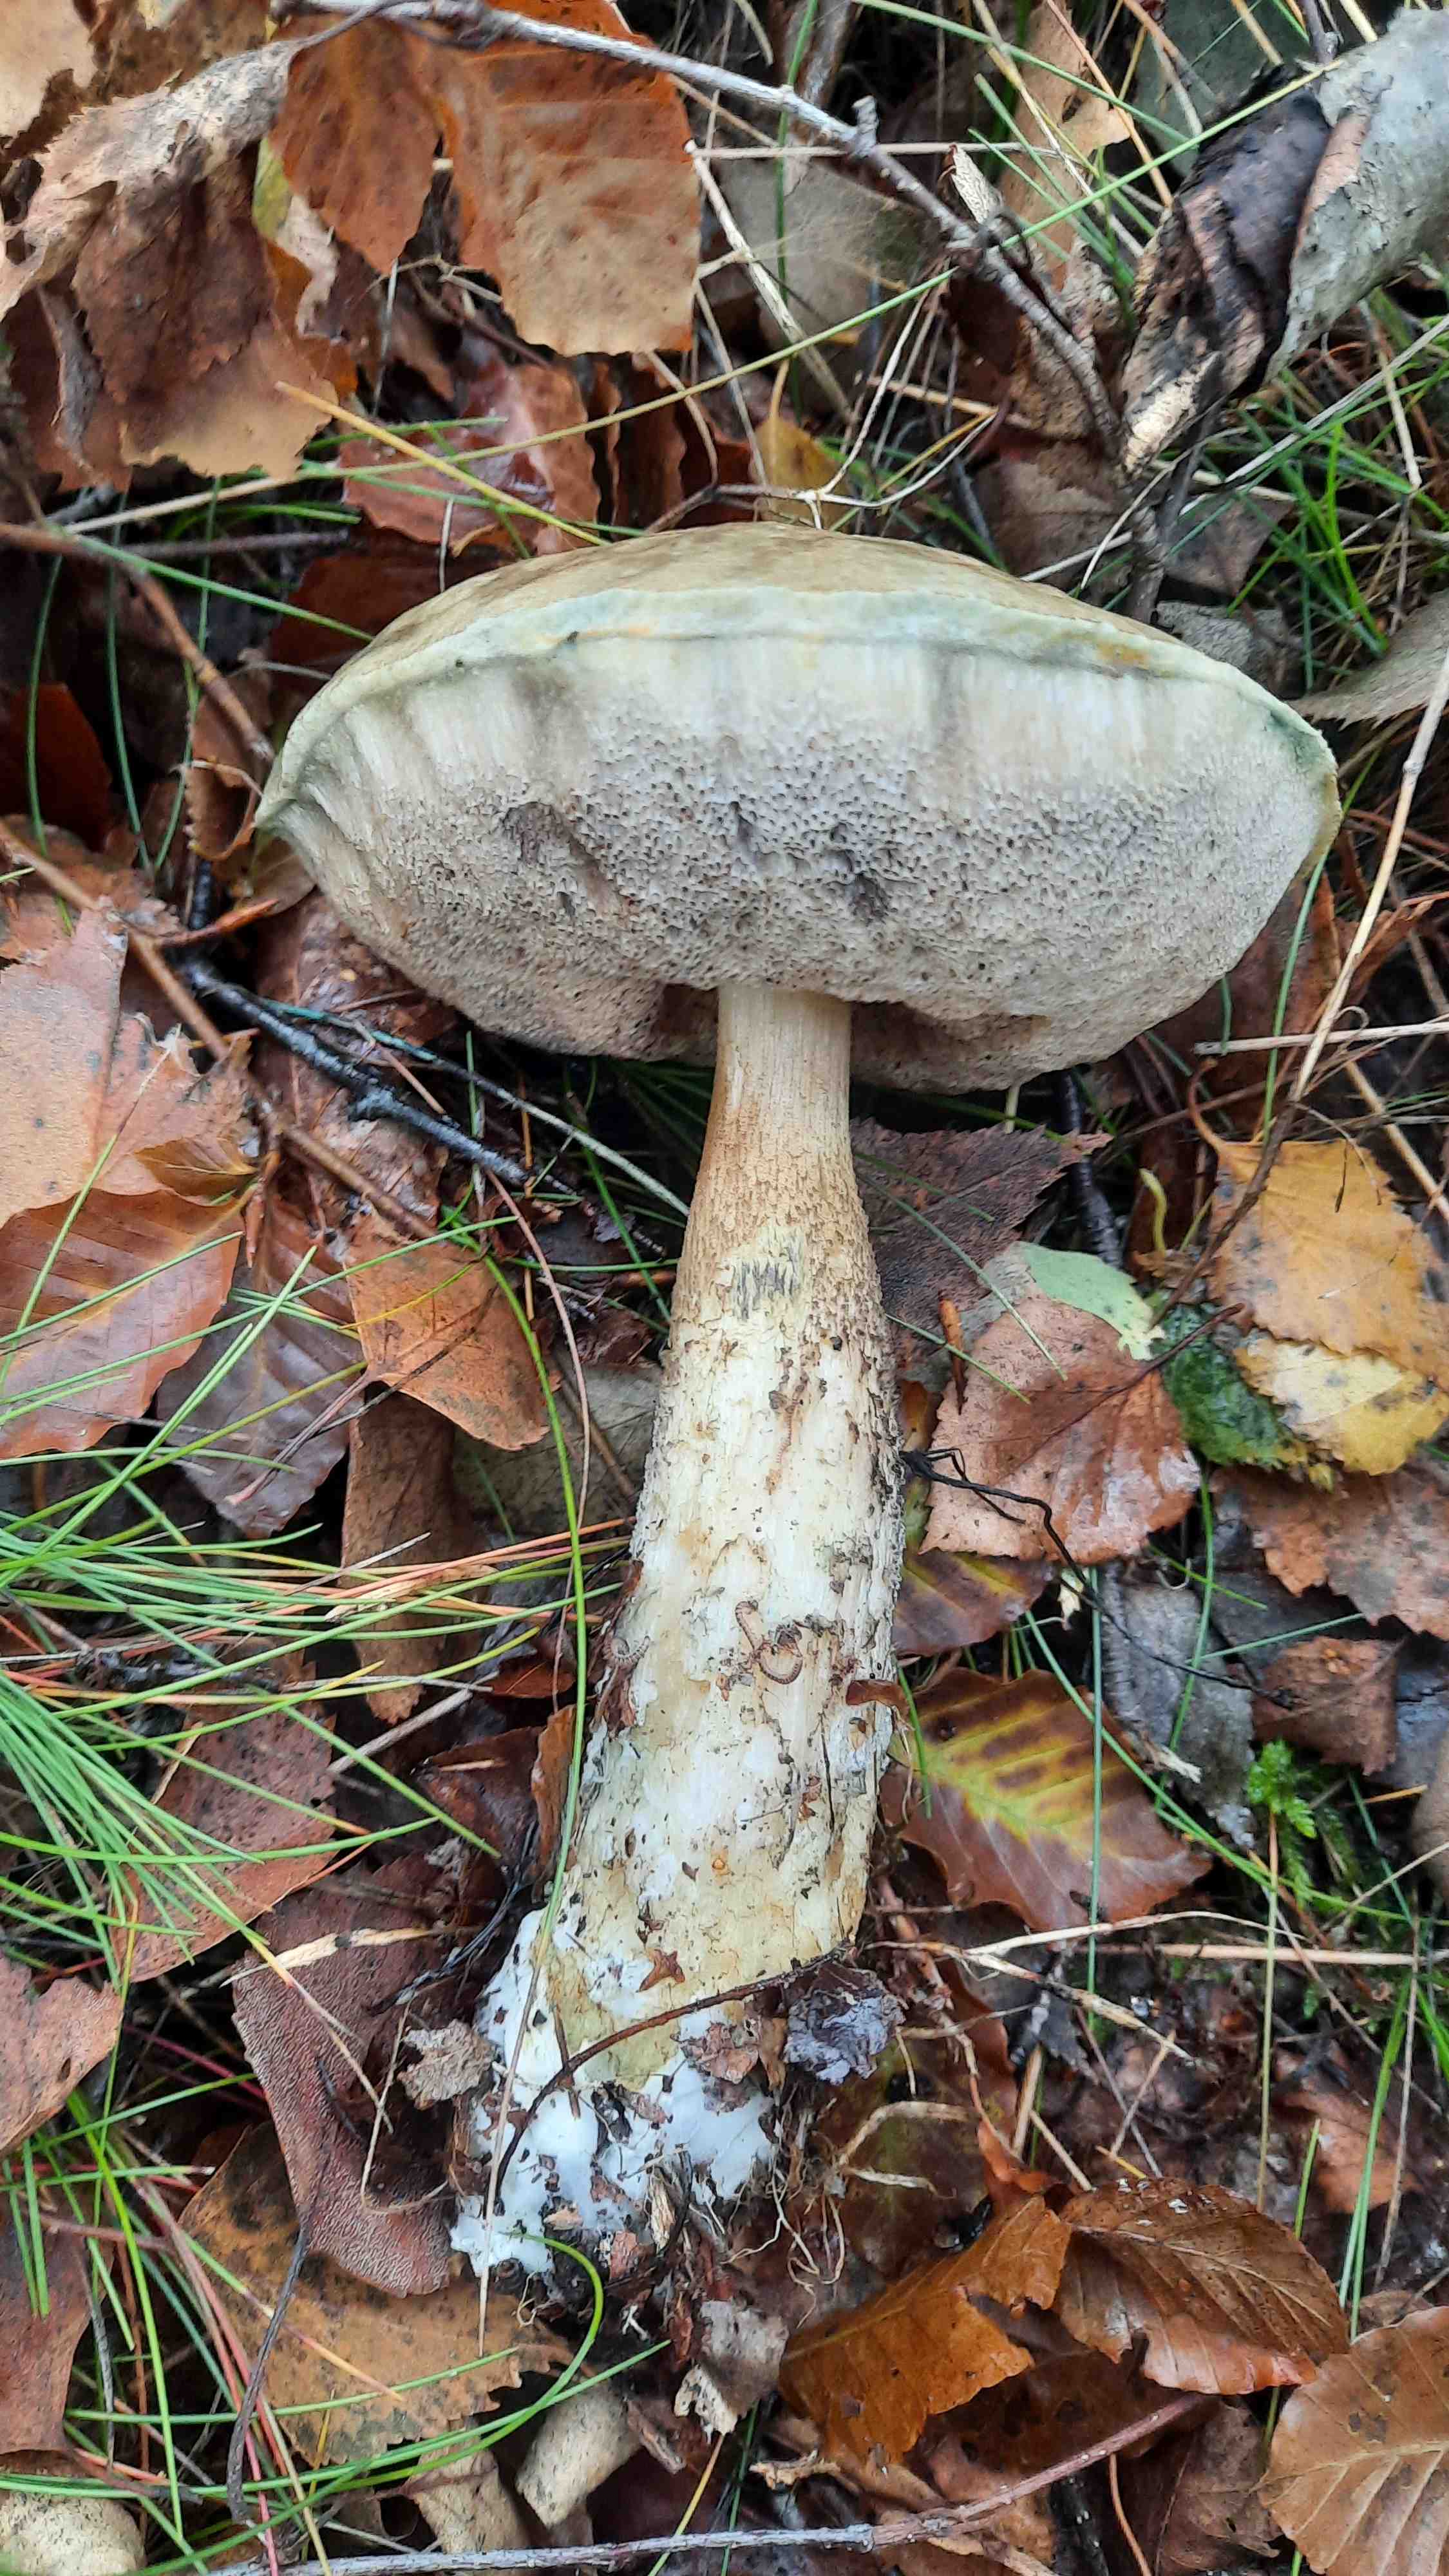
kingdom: Fungi
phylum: Basidiomycota
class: Agaricomycetes
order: Boletales
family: Boletaceae
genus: Leccinum
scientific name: Leccinum variicolor
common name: flammet skælrørhat
